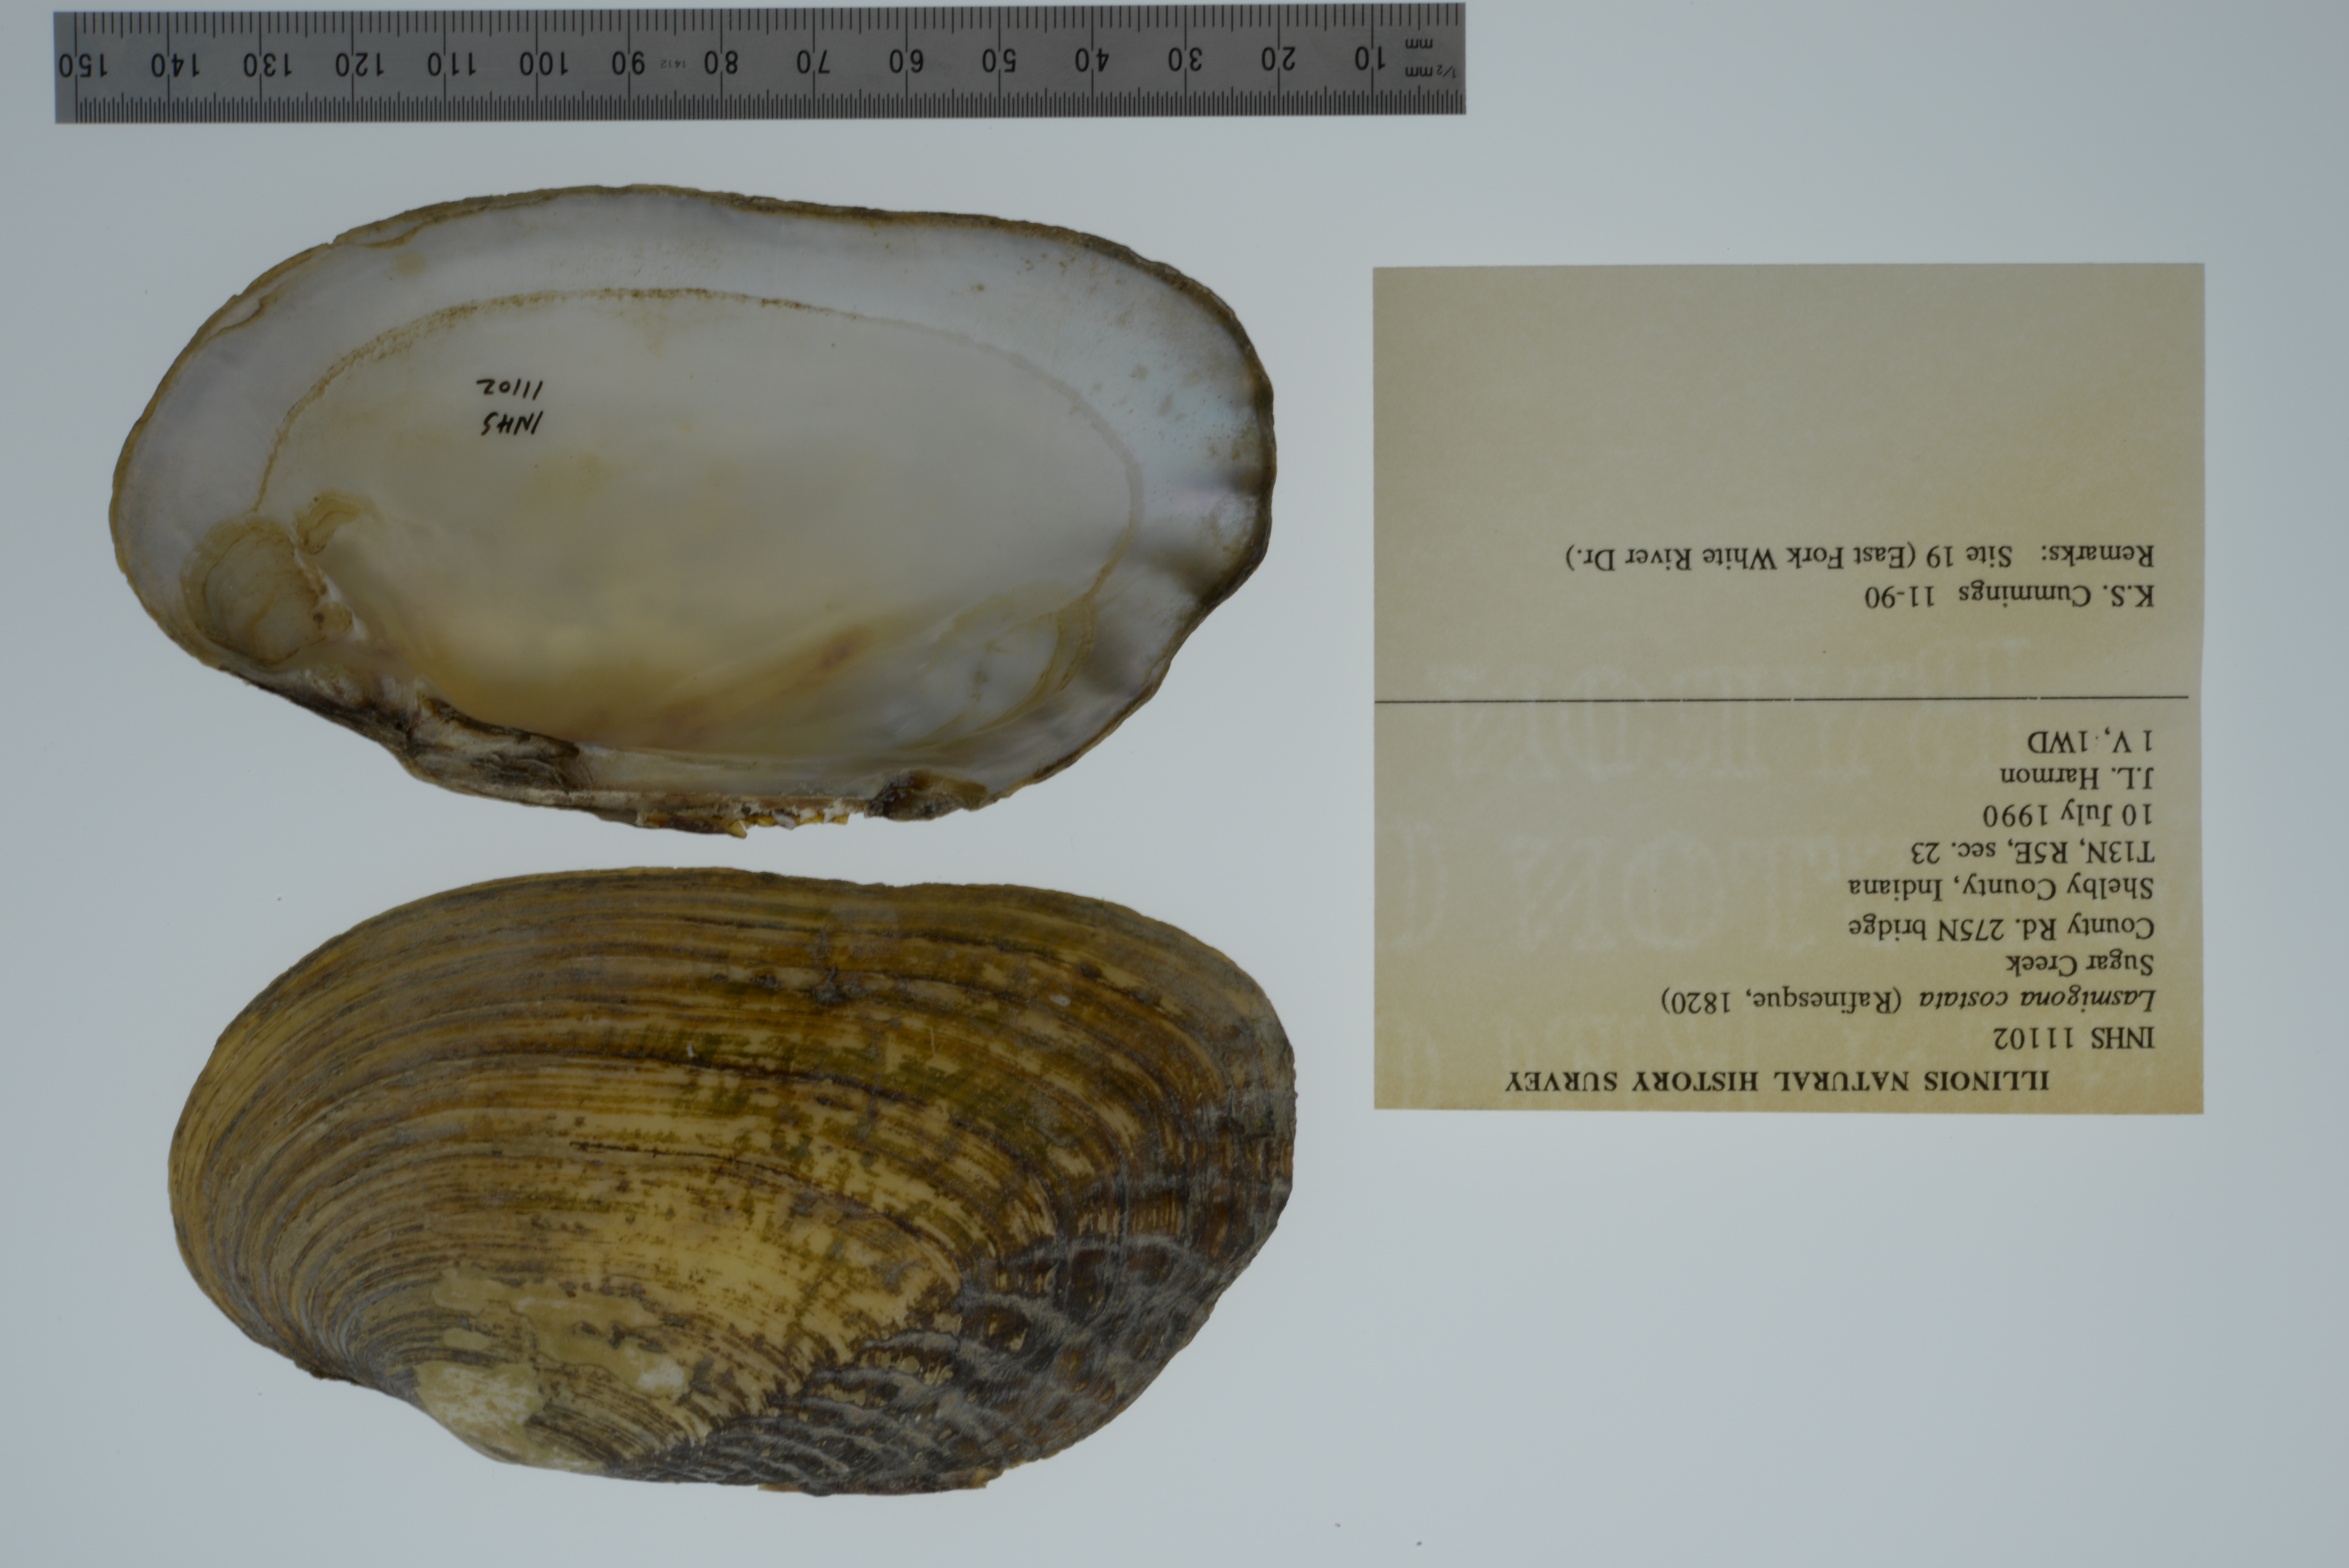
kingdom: Animalia
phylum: Mollusca
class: Bivalvia
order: Unionida
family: Unionidae
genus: Lasmigona
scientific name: Lasmigona costata
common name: Flutedshell
